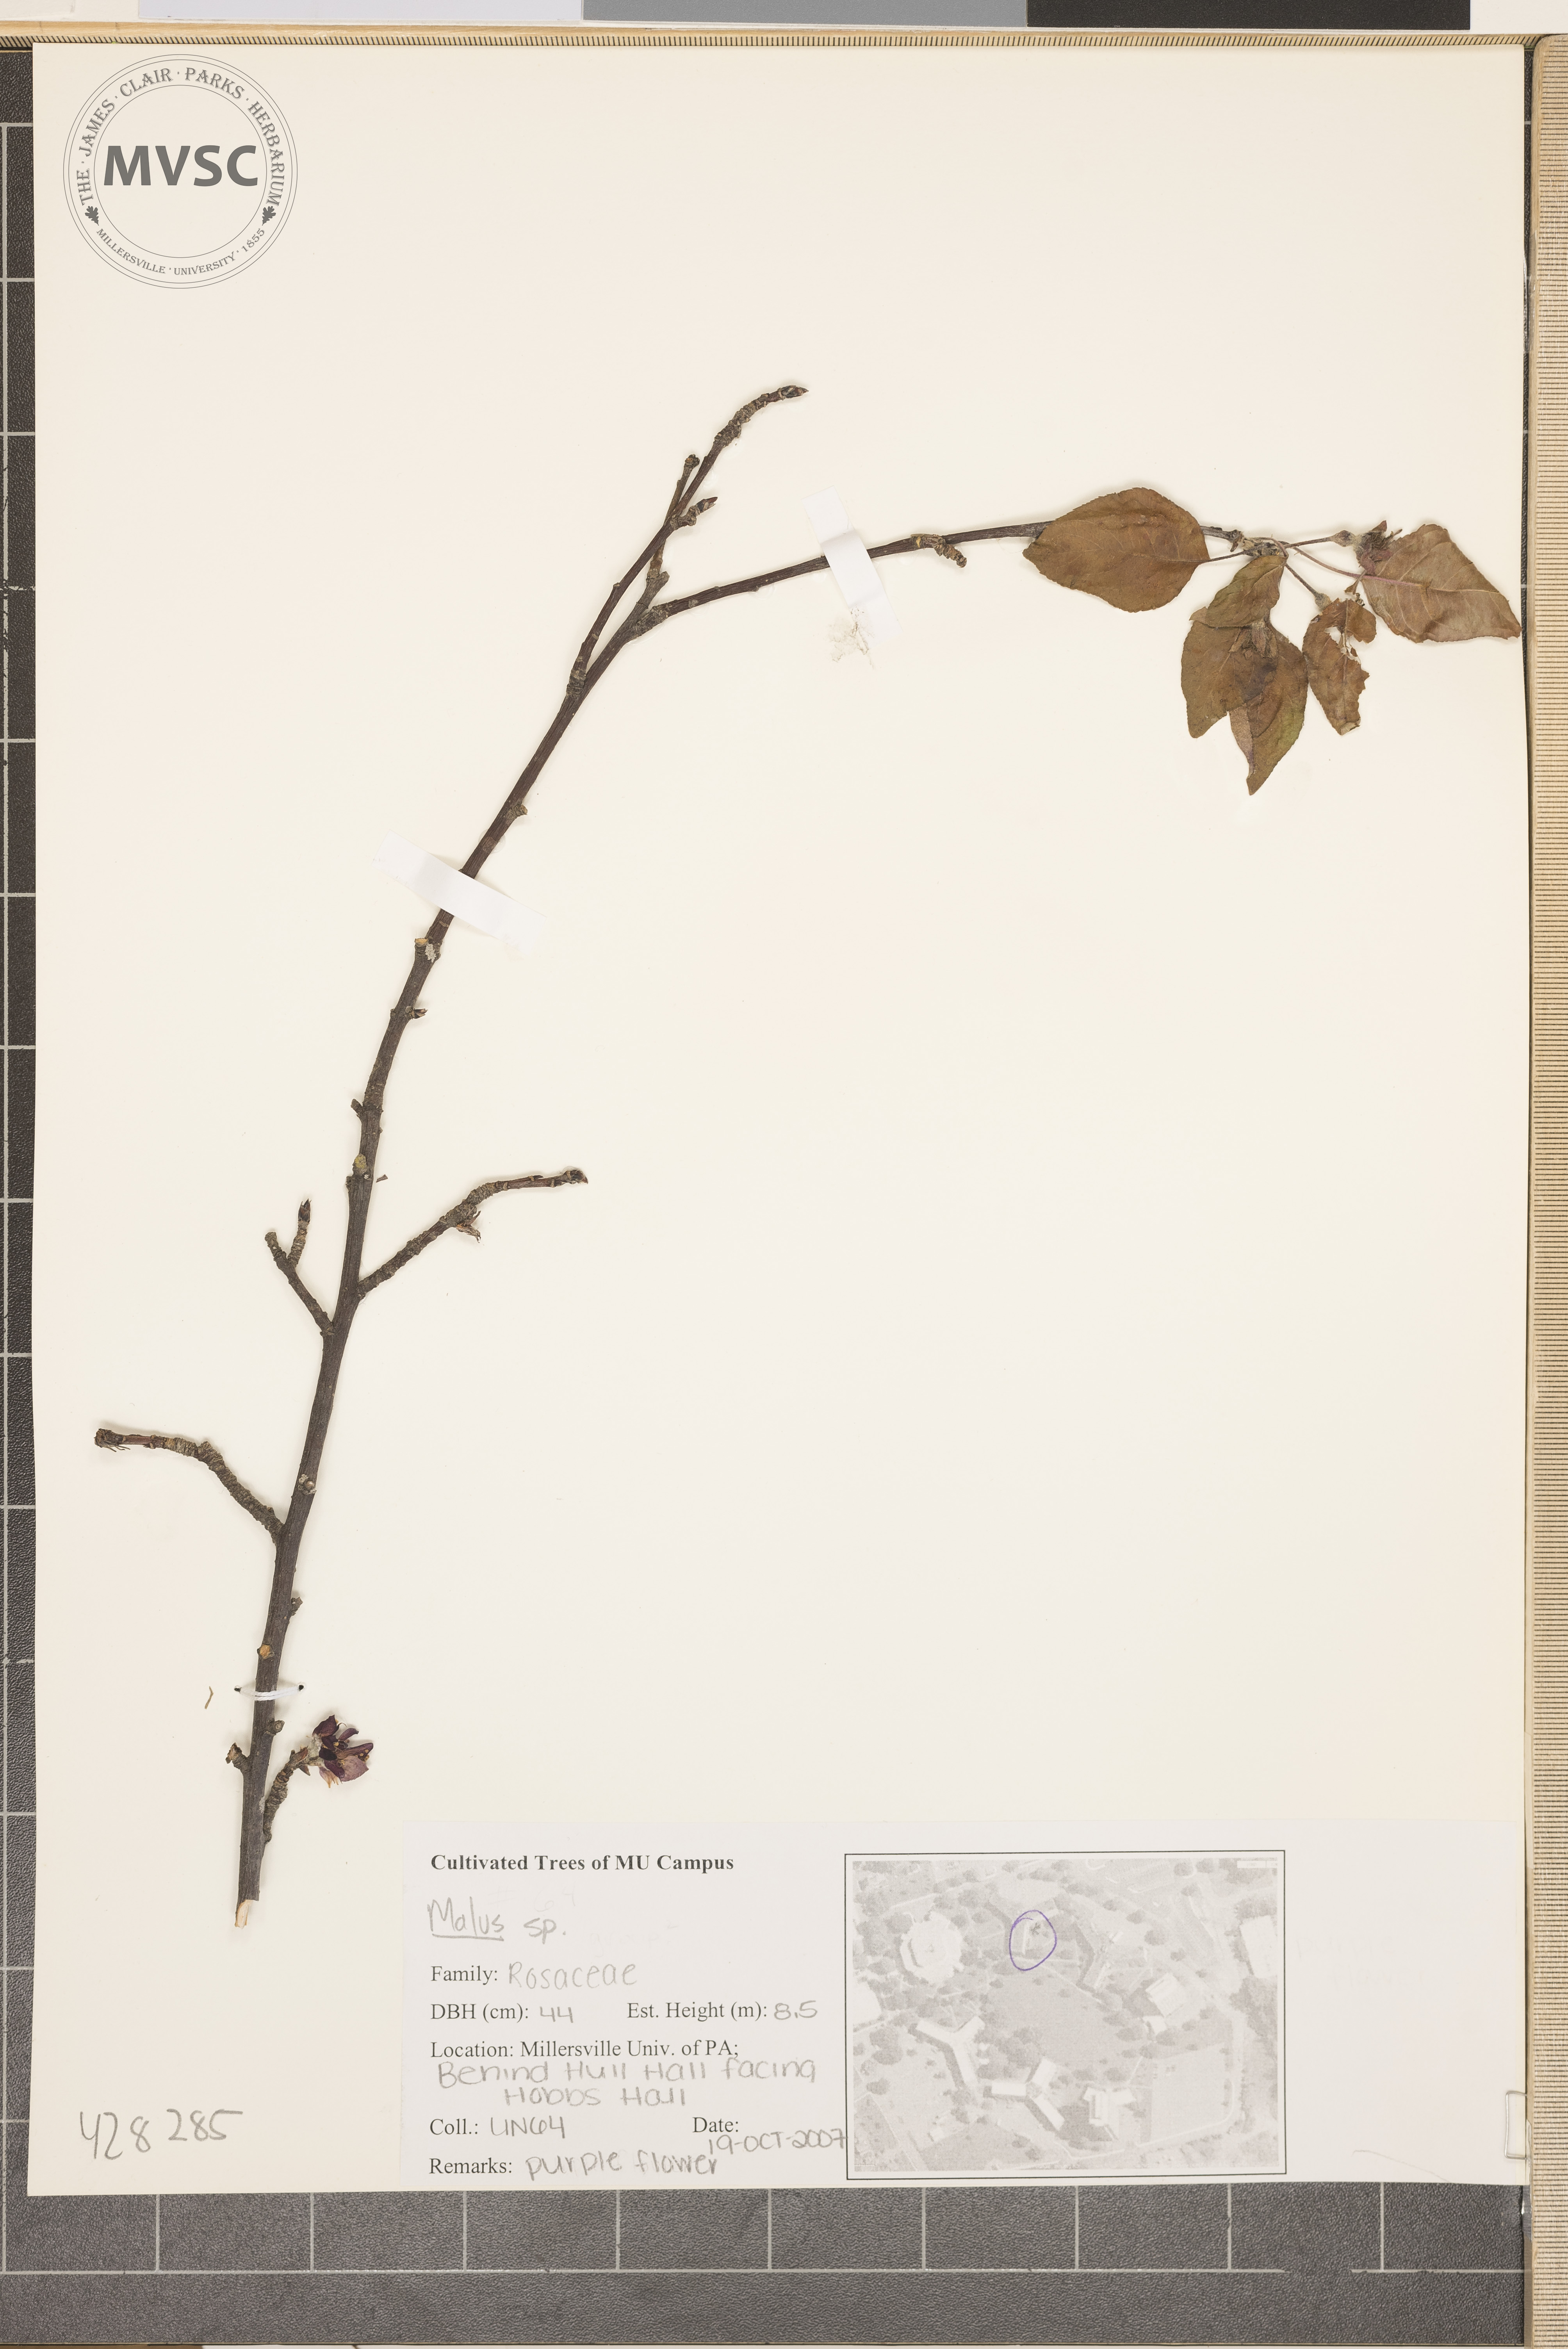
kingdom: Plantae
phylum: Tracheophyta
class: Magnoliopsida
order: Rosales
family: Rosaceae
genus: Malus
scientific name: Malus
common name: Crabapple
